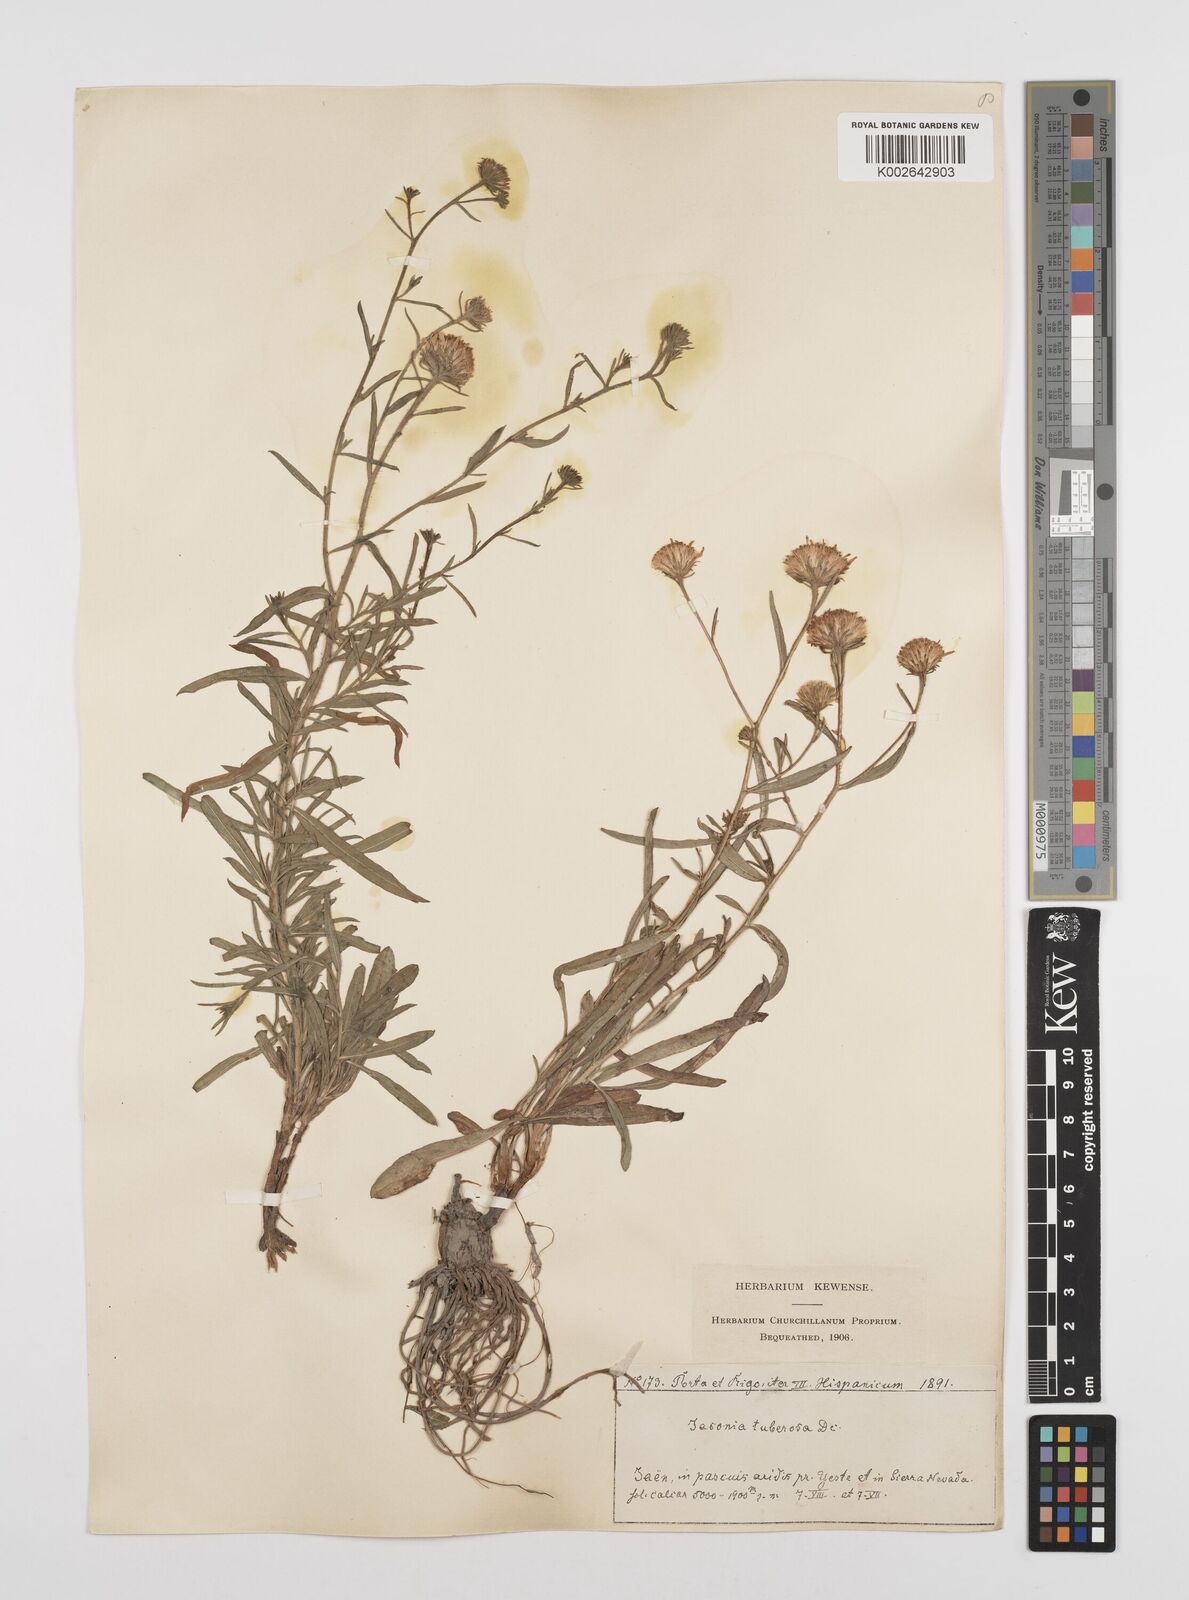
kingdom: Plantae
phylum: Tracheophyta
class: Magnoliopsida
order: Asterales
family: Asteraceae
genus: Jasonia
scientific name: Jasonia tuberosa
